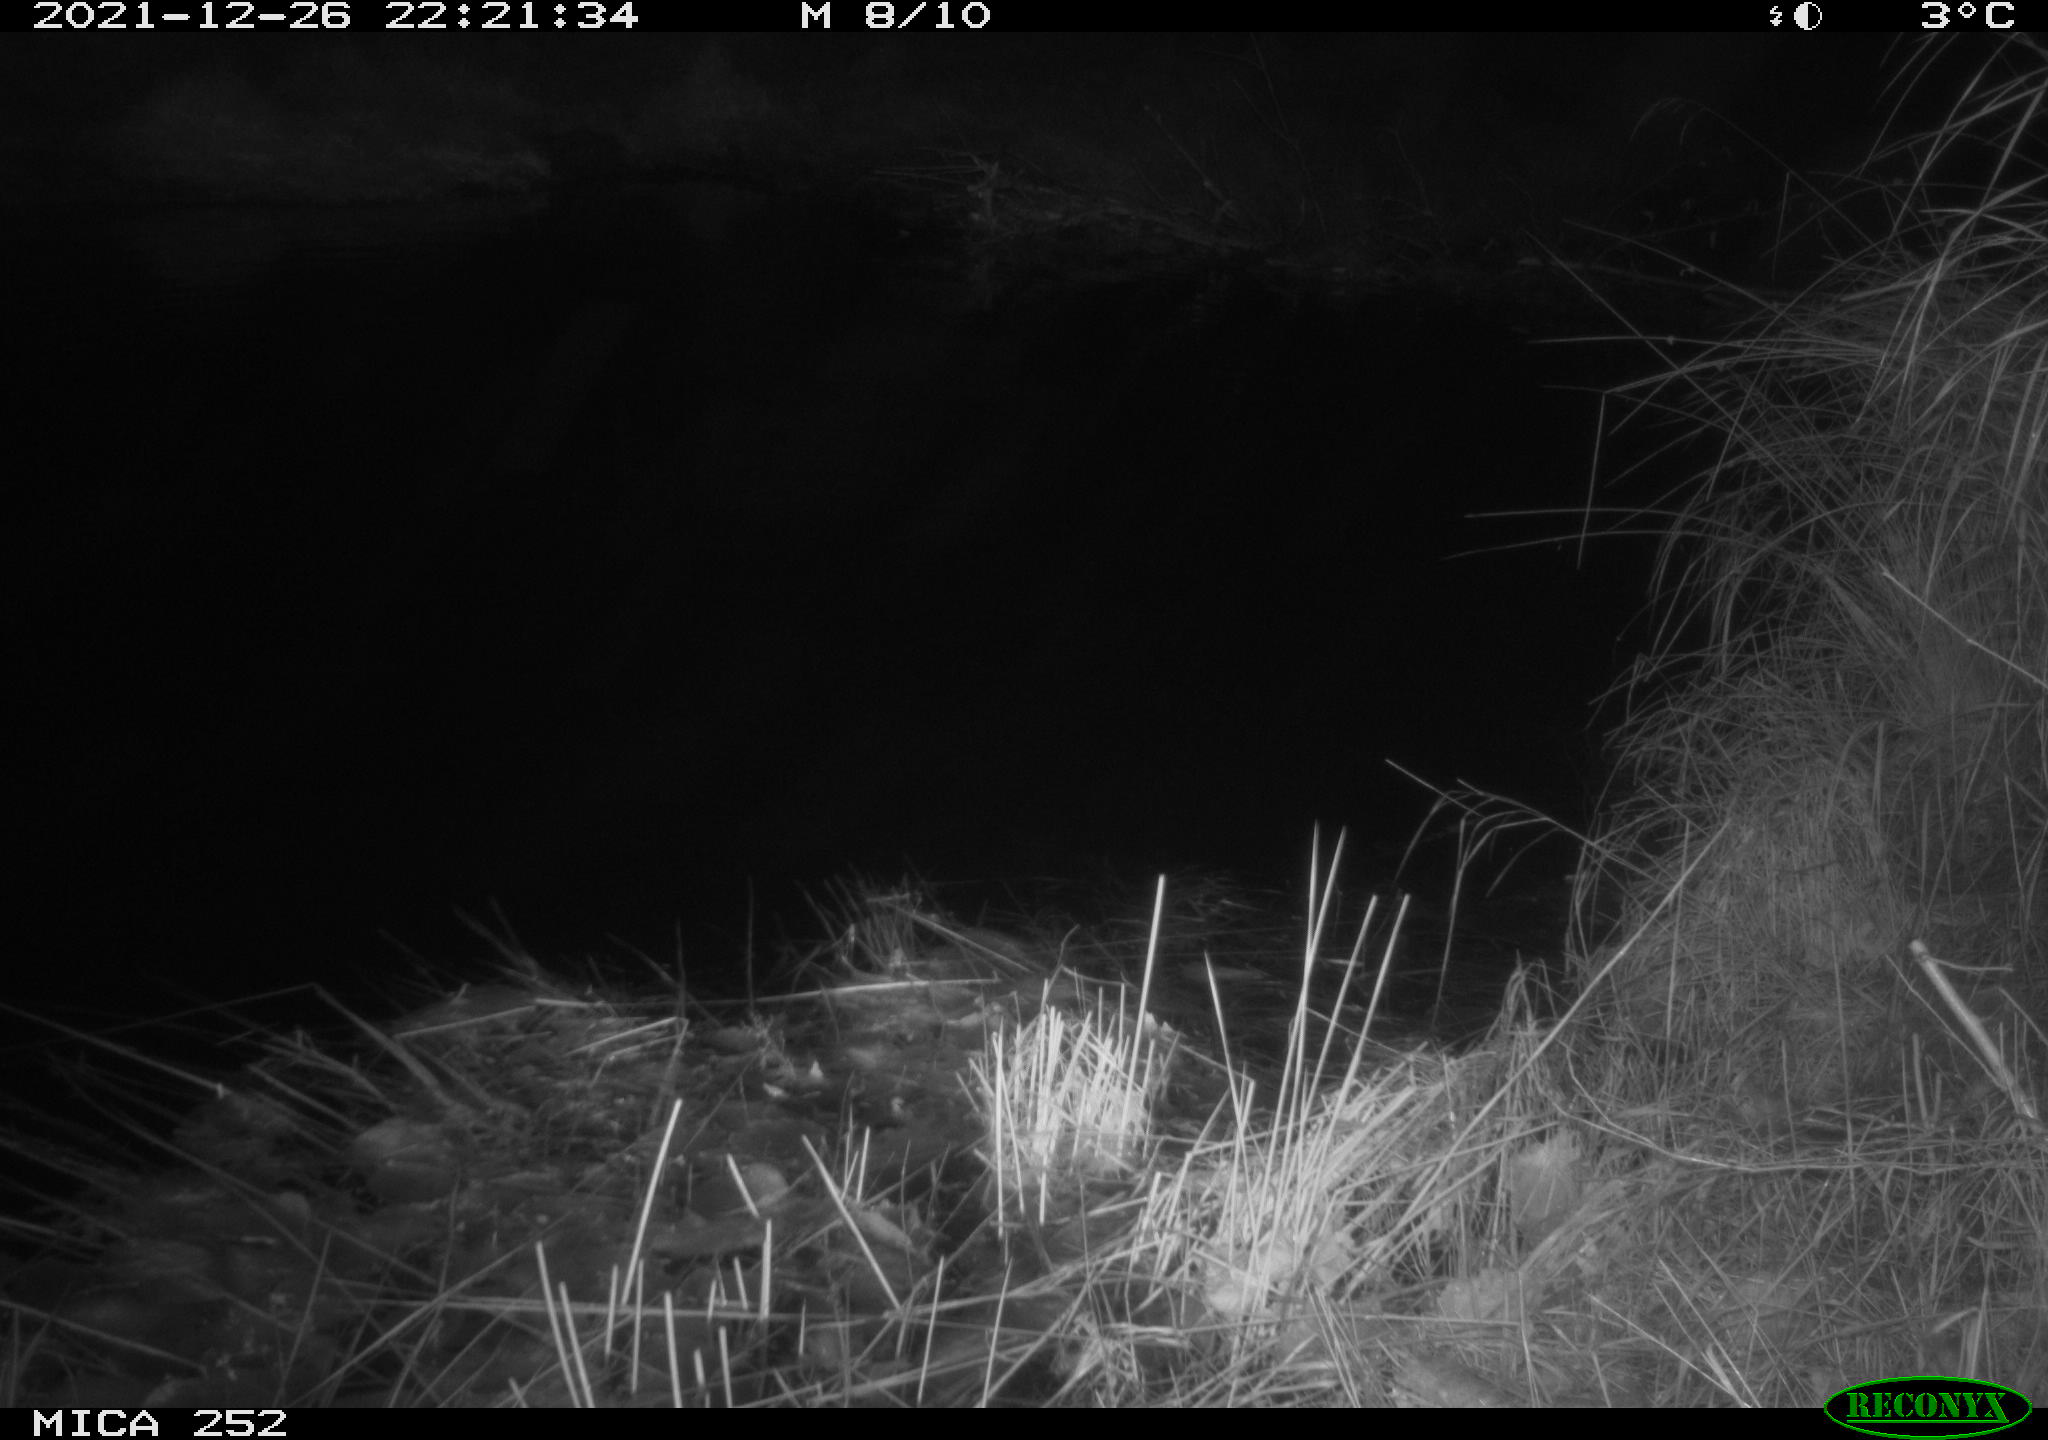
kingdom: Animalia
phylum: Chordata
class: Mammalia
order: Rodentia
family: Castoridae
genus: Castor
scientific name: Castor fiber
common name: Eurasian beaver
